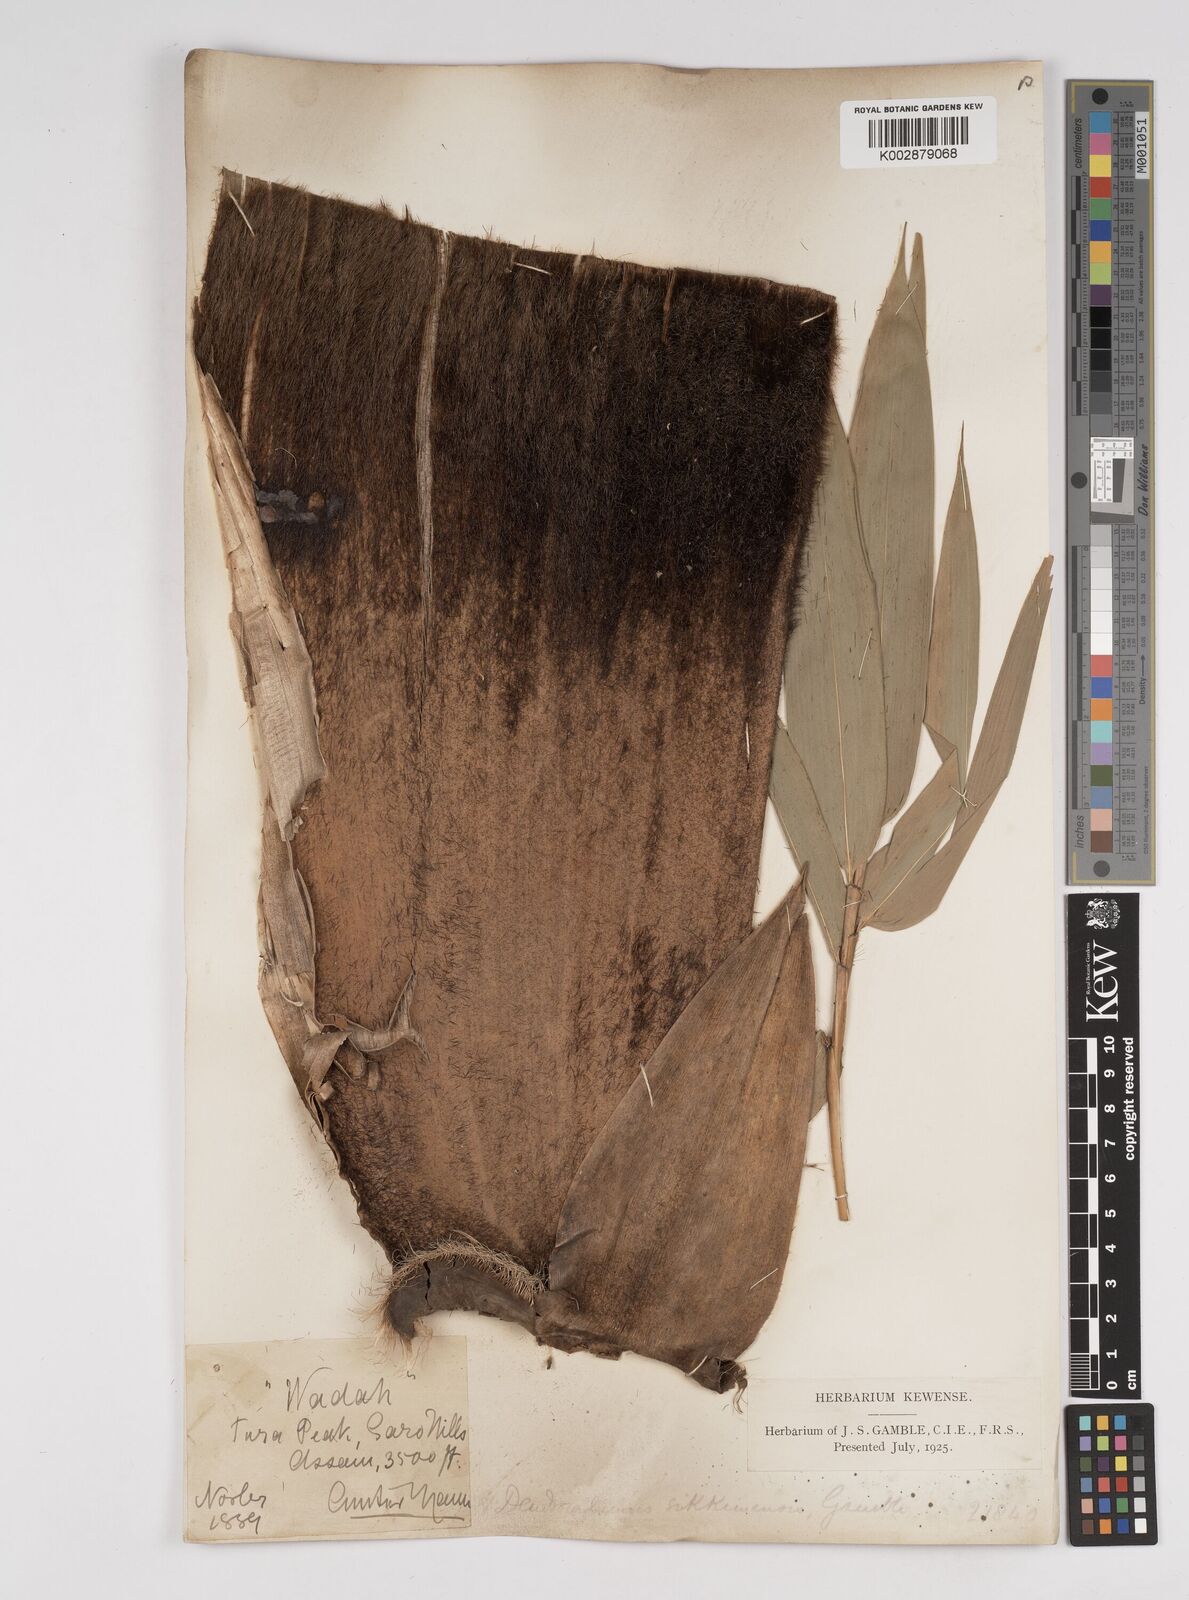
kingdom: Plantae
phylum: Tracheophyta
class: Liliopsida
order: Poales
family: Poaceae
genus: Dendrocalamus
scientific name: Dendrocalamus sikkimensis
